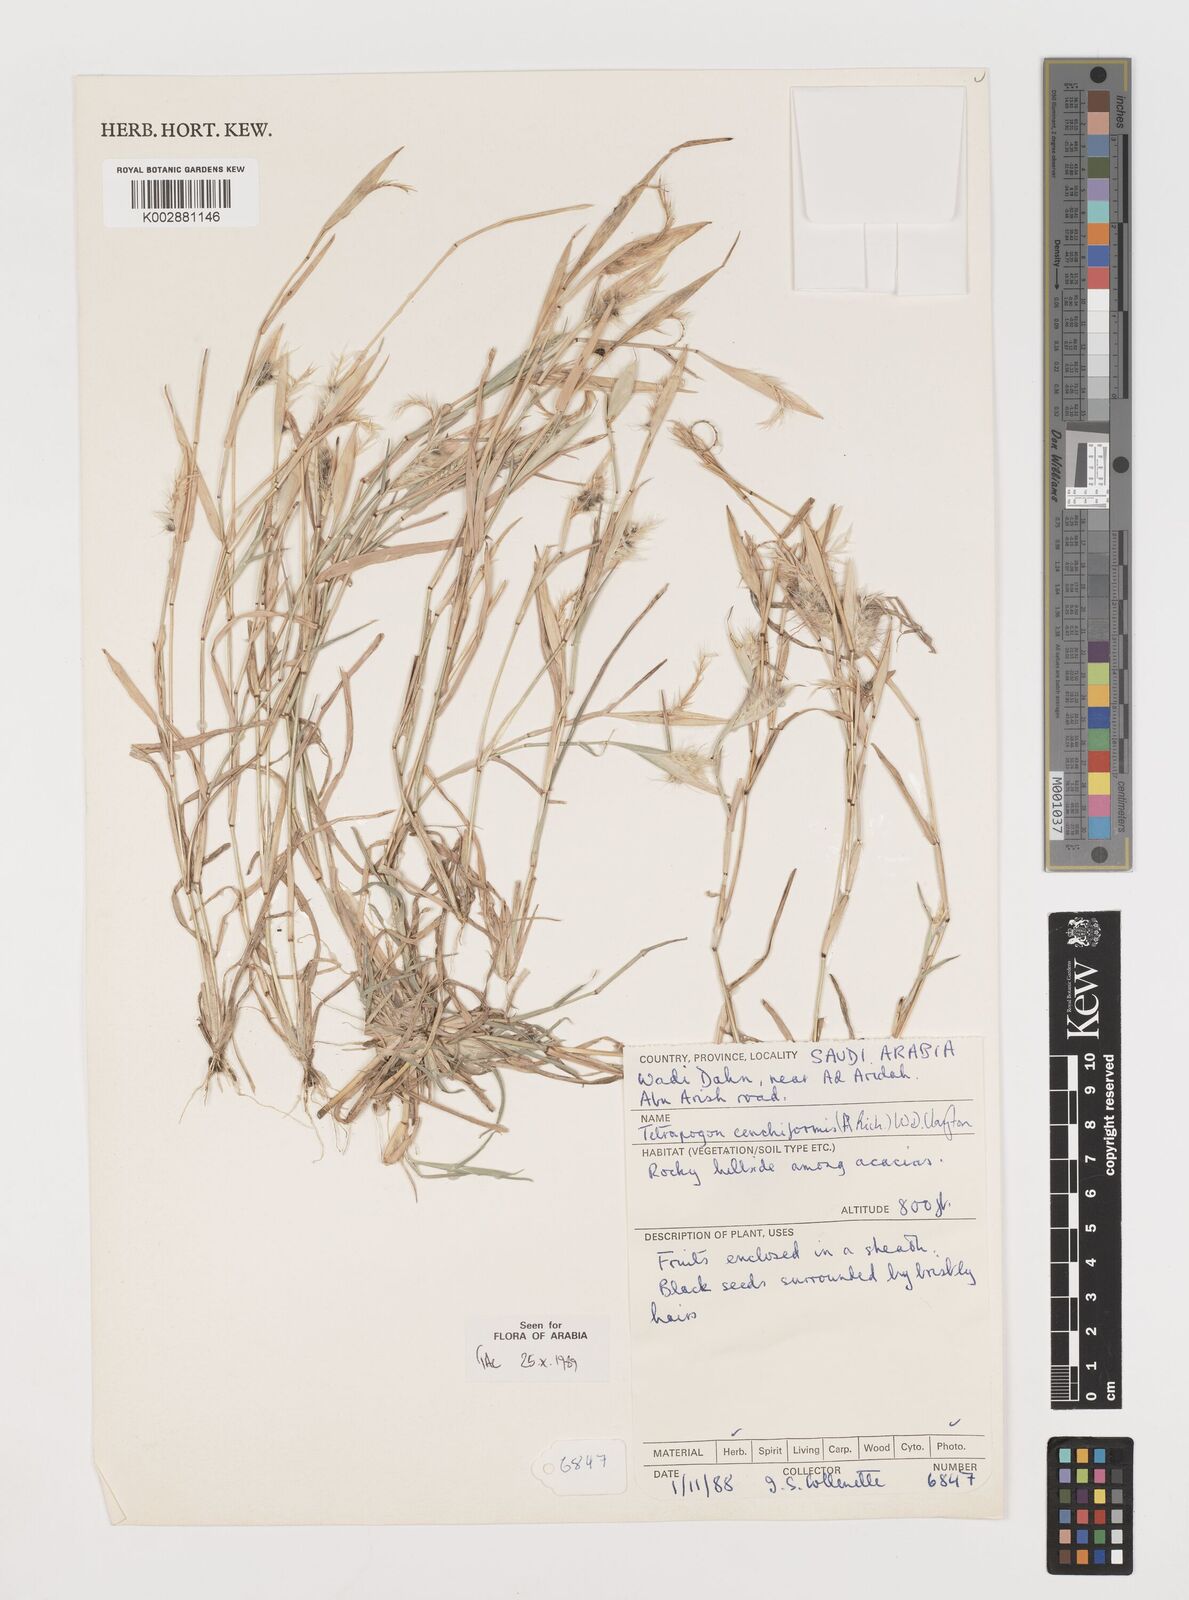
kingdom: Plantae
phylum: Tracheophyta
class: Liliopsida
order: Poales
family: Poaceae
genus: Tetrapogon
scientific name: Tetrapogon cenchriformis
